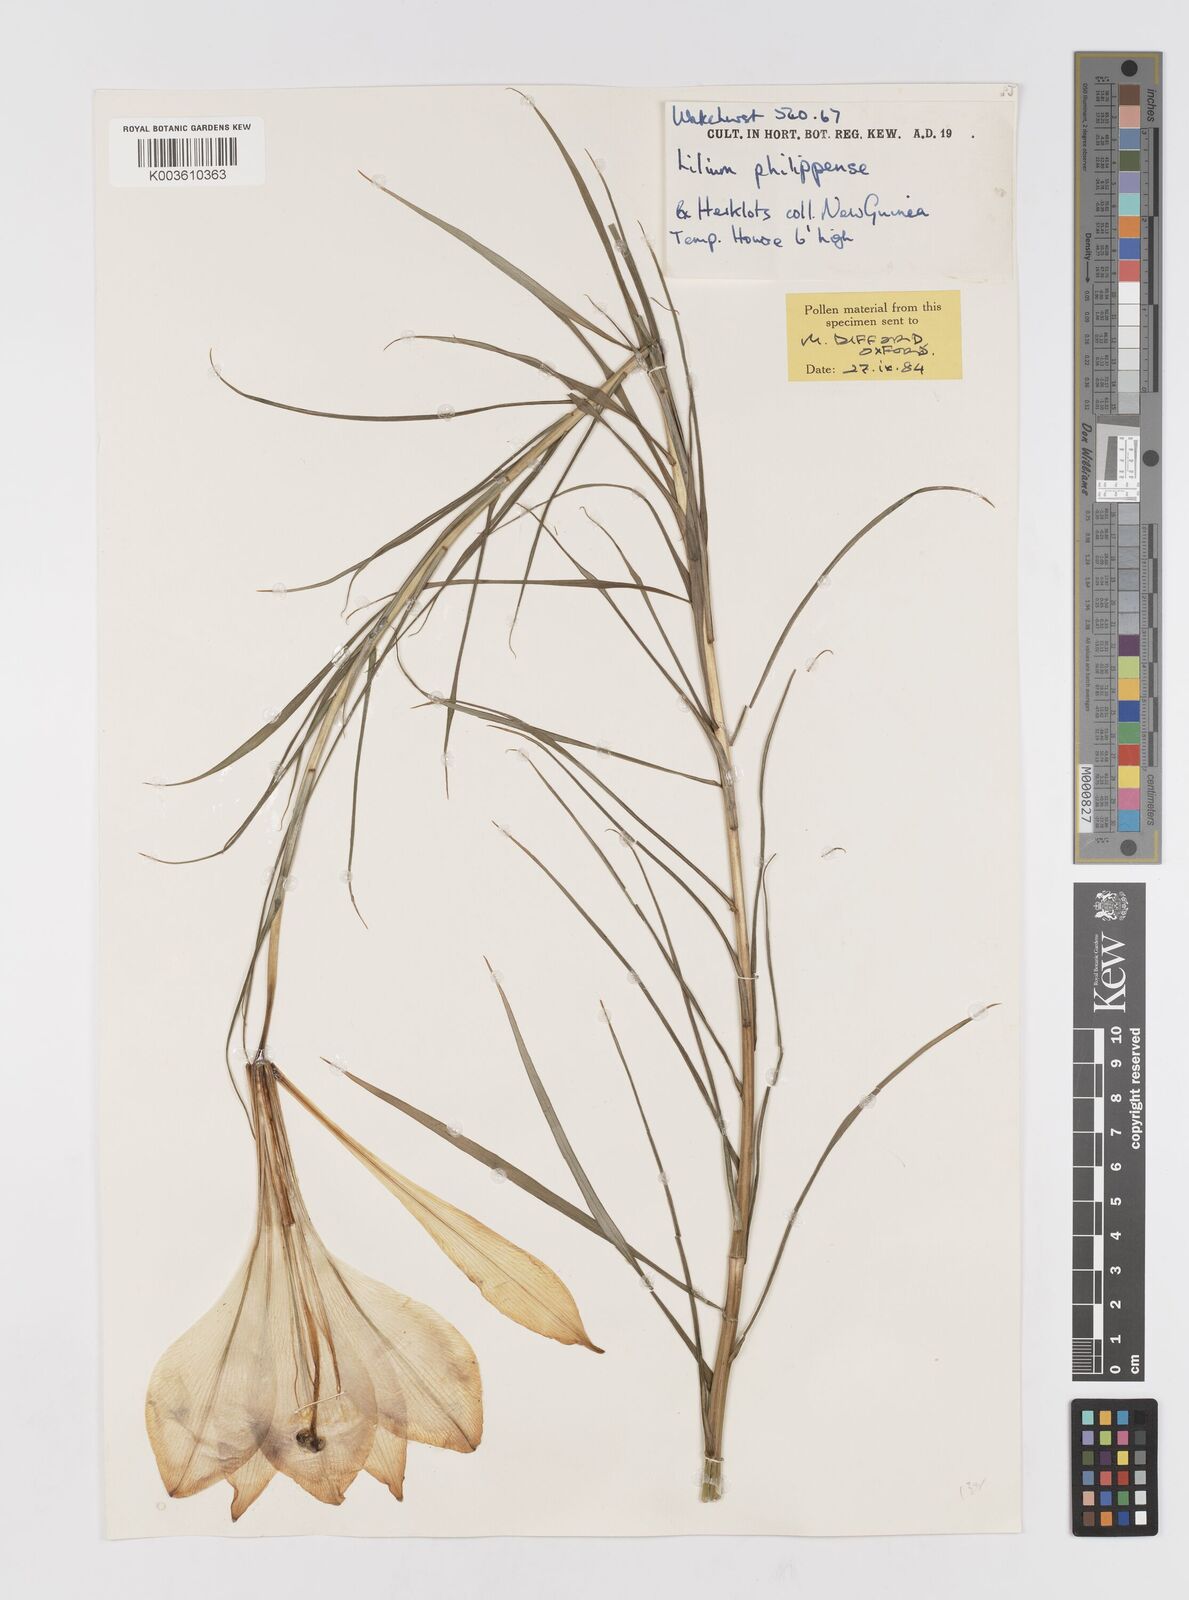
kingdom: Plantae
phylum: Tracheophyta
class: Liliopsida
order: Liliales
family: Liliaceae
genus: Lilium
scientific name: Lilium philippinense
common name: Philippine lily
